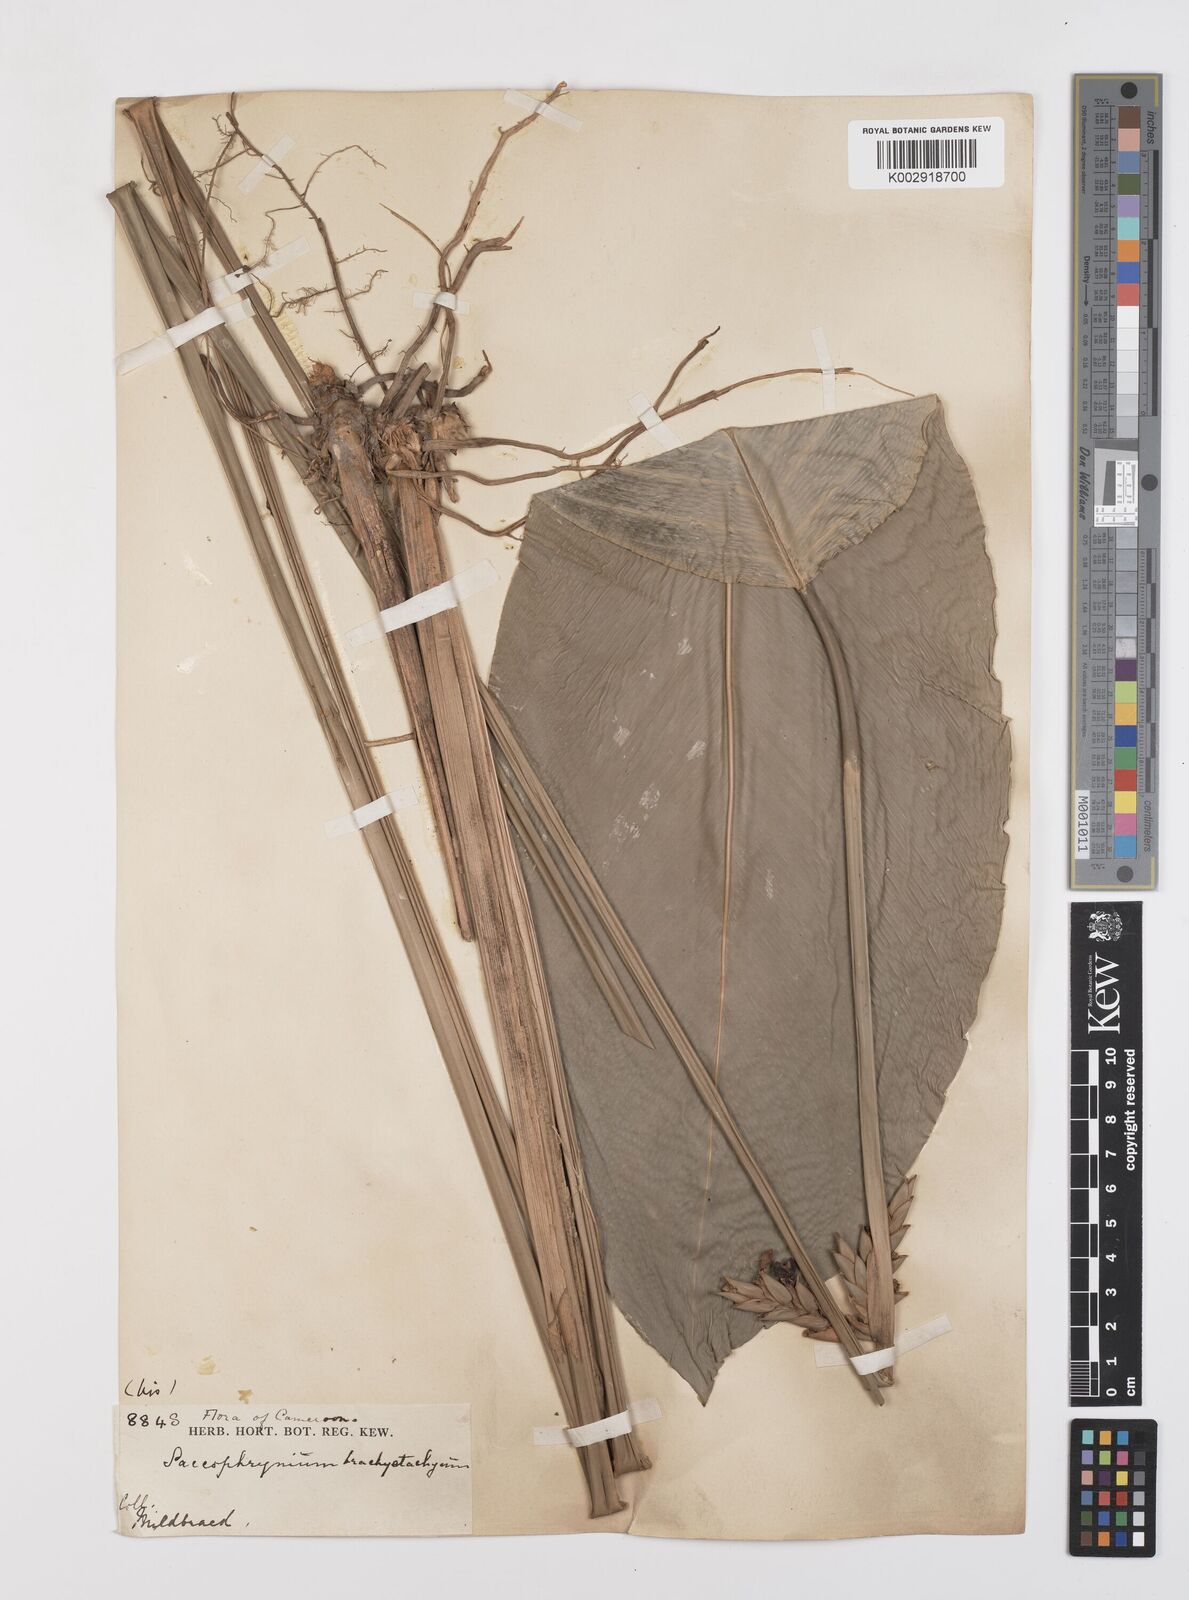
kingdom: Plantae
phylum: Tracheophyta
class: Liliopsida
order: Zingiberales
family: Marantaceae
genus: Sarcophrynium
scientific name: Sarcophrynium brachystachyum
